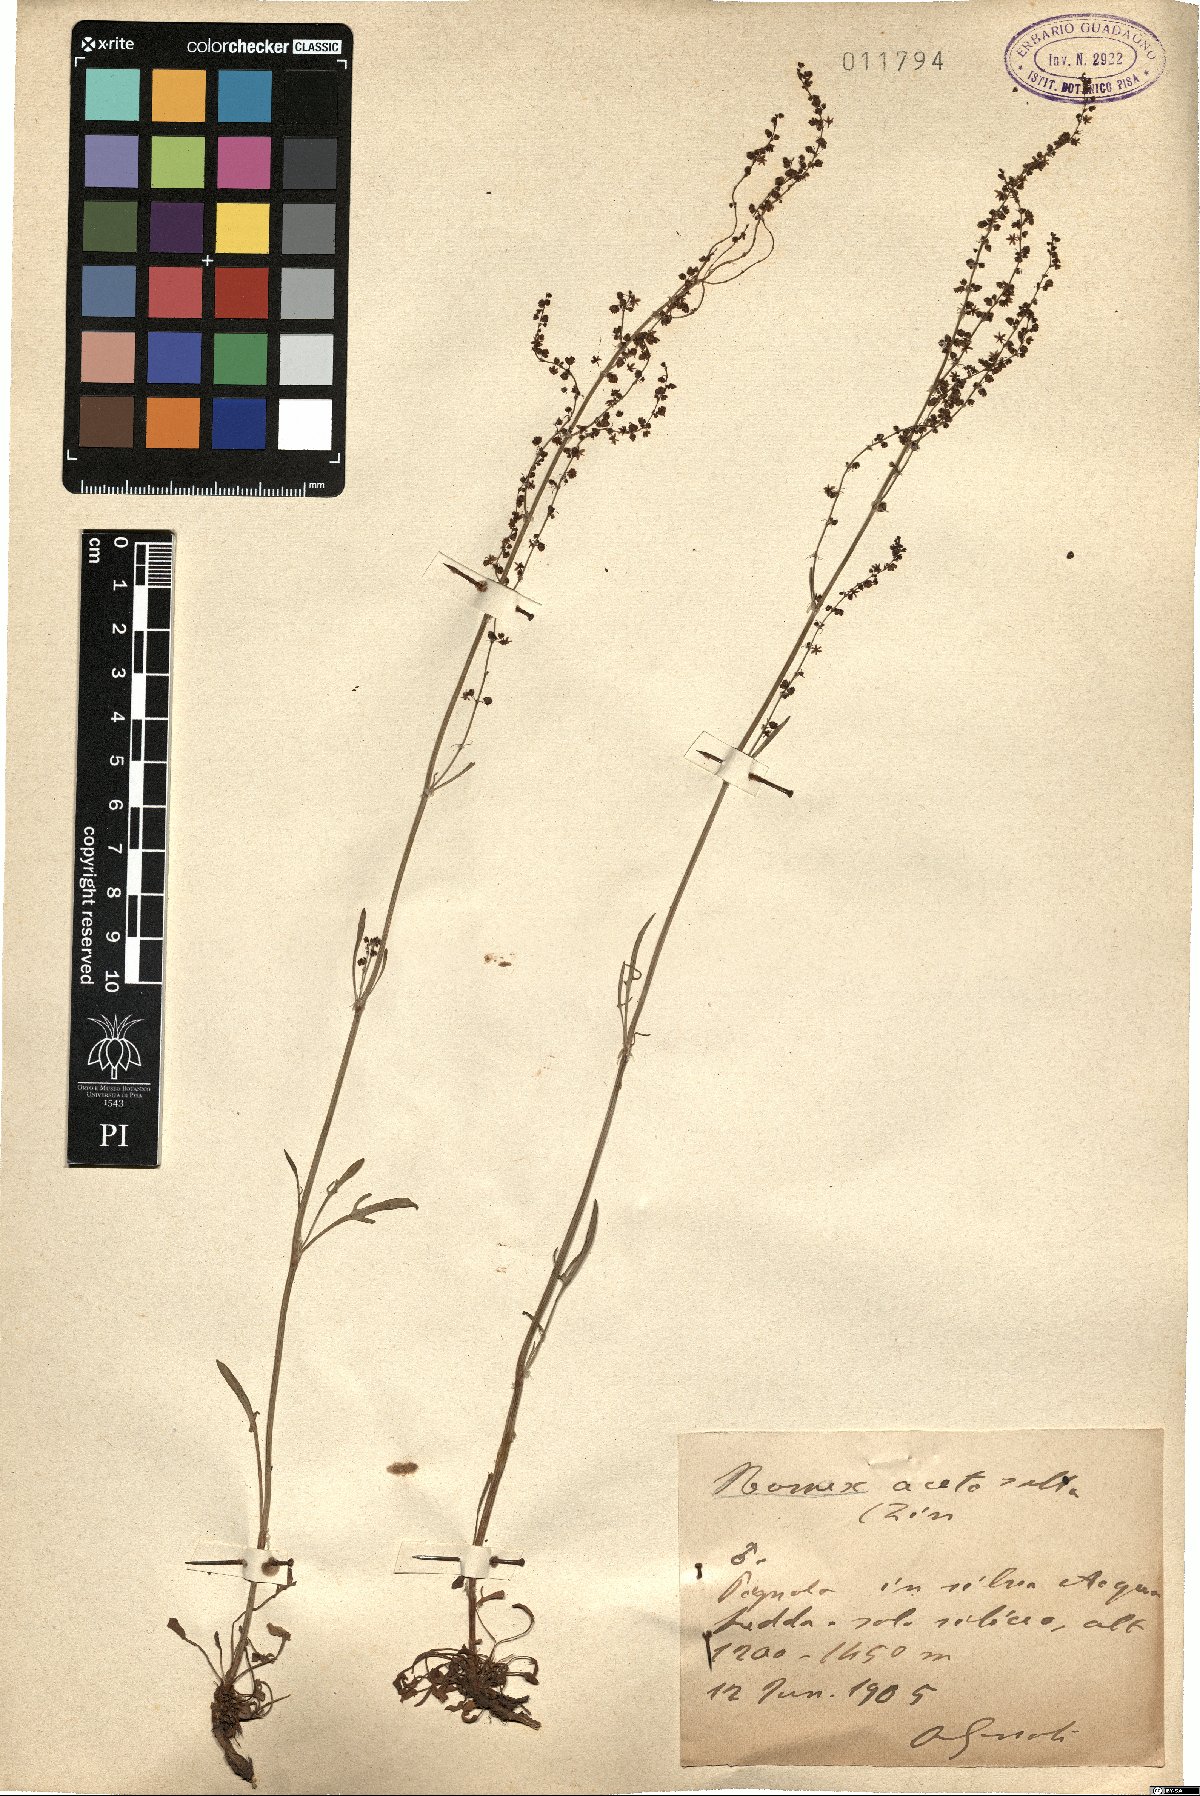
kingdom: Plantae
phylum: Tracheophyta
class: Magnoliopsida
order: Caryophyllales
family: Polygonaceae
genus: Rumex
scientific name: Rumex acetosella
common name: Common sheep sorrel
